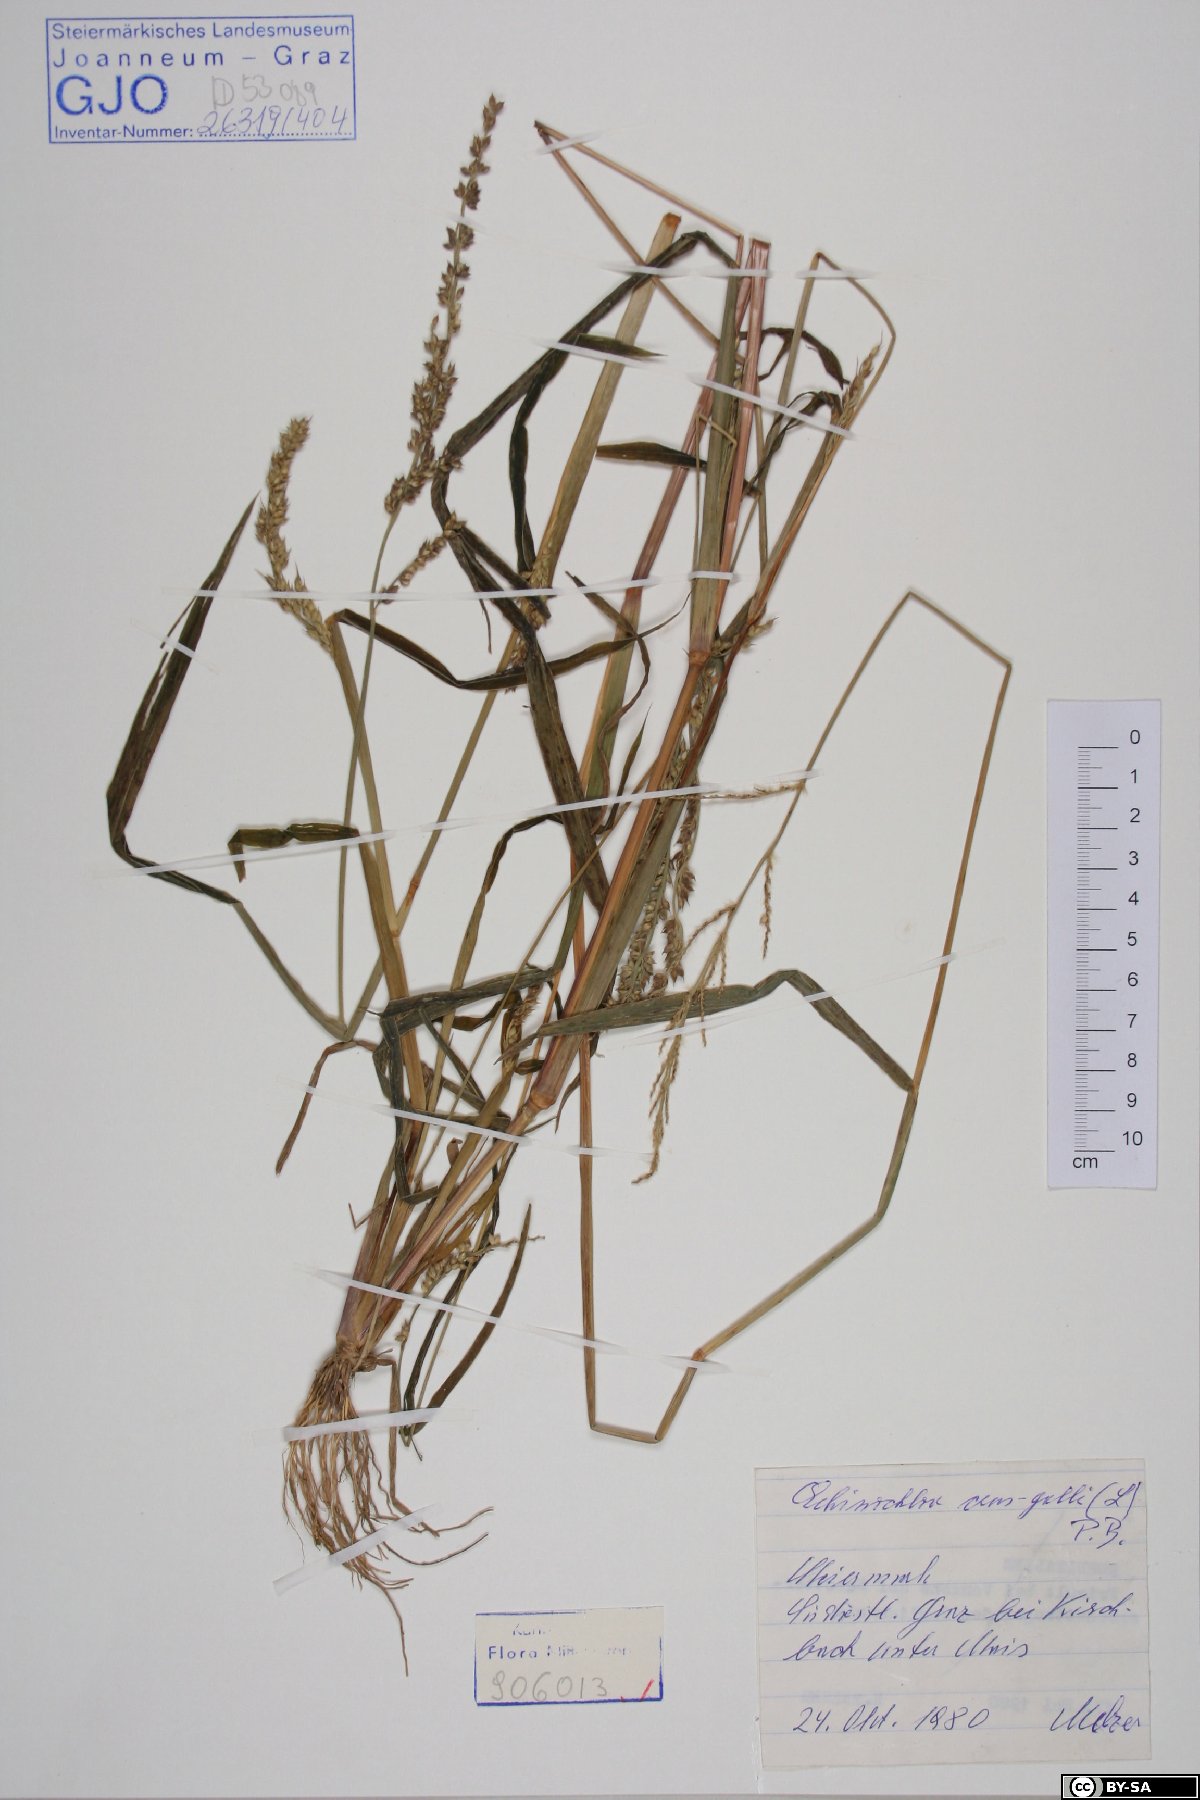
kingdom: Plantae
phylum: Tracheophyta
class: Liliopsida
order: Poales
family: Poaceae
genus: Echinochloa
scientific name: Echinochloa crus-galli
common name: Cockspur
